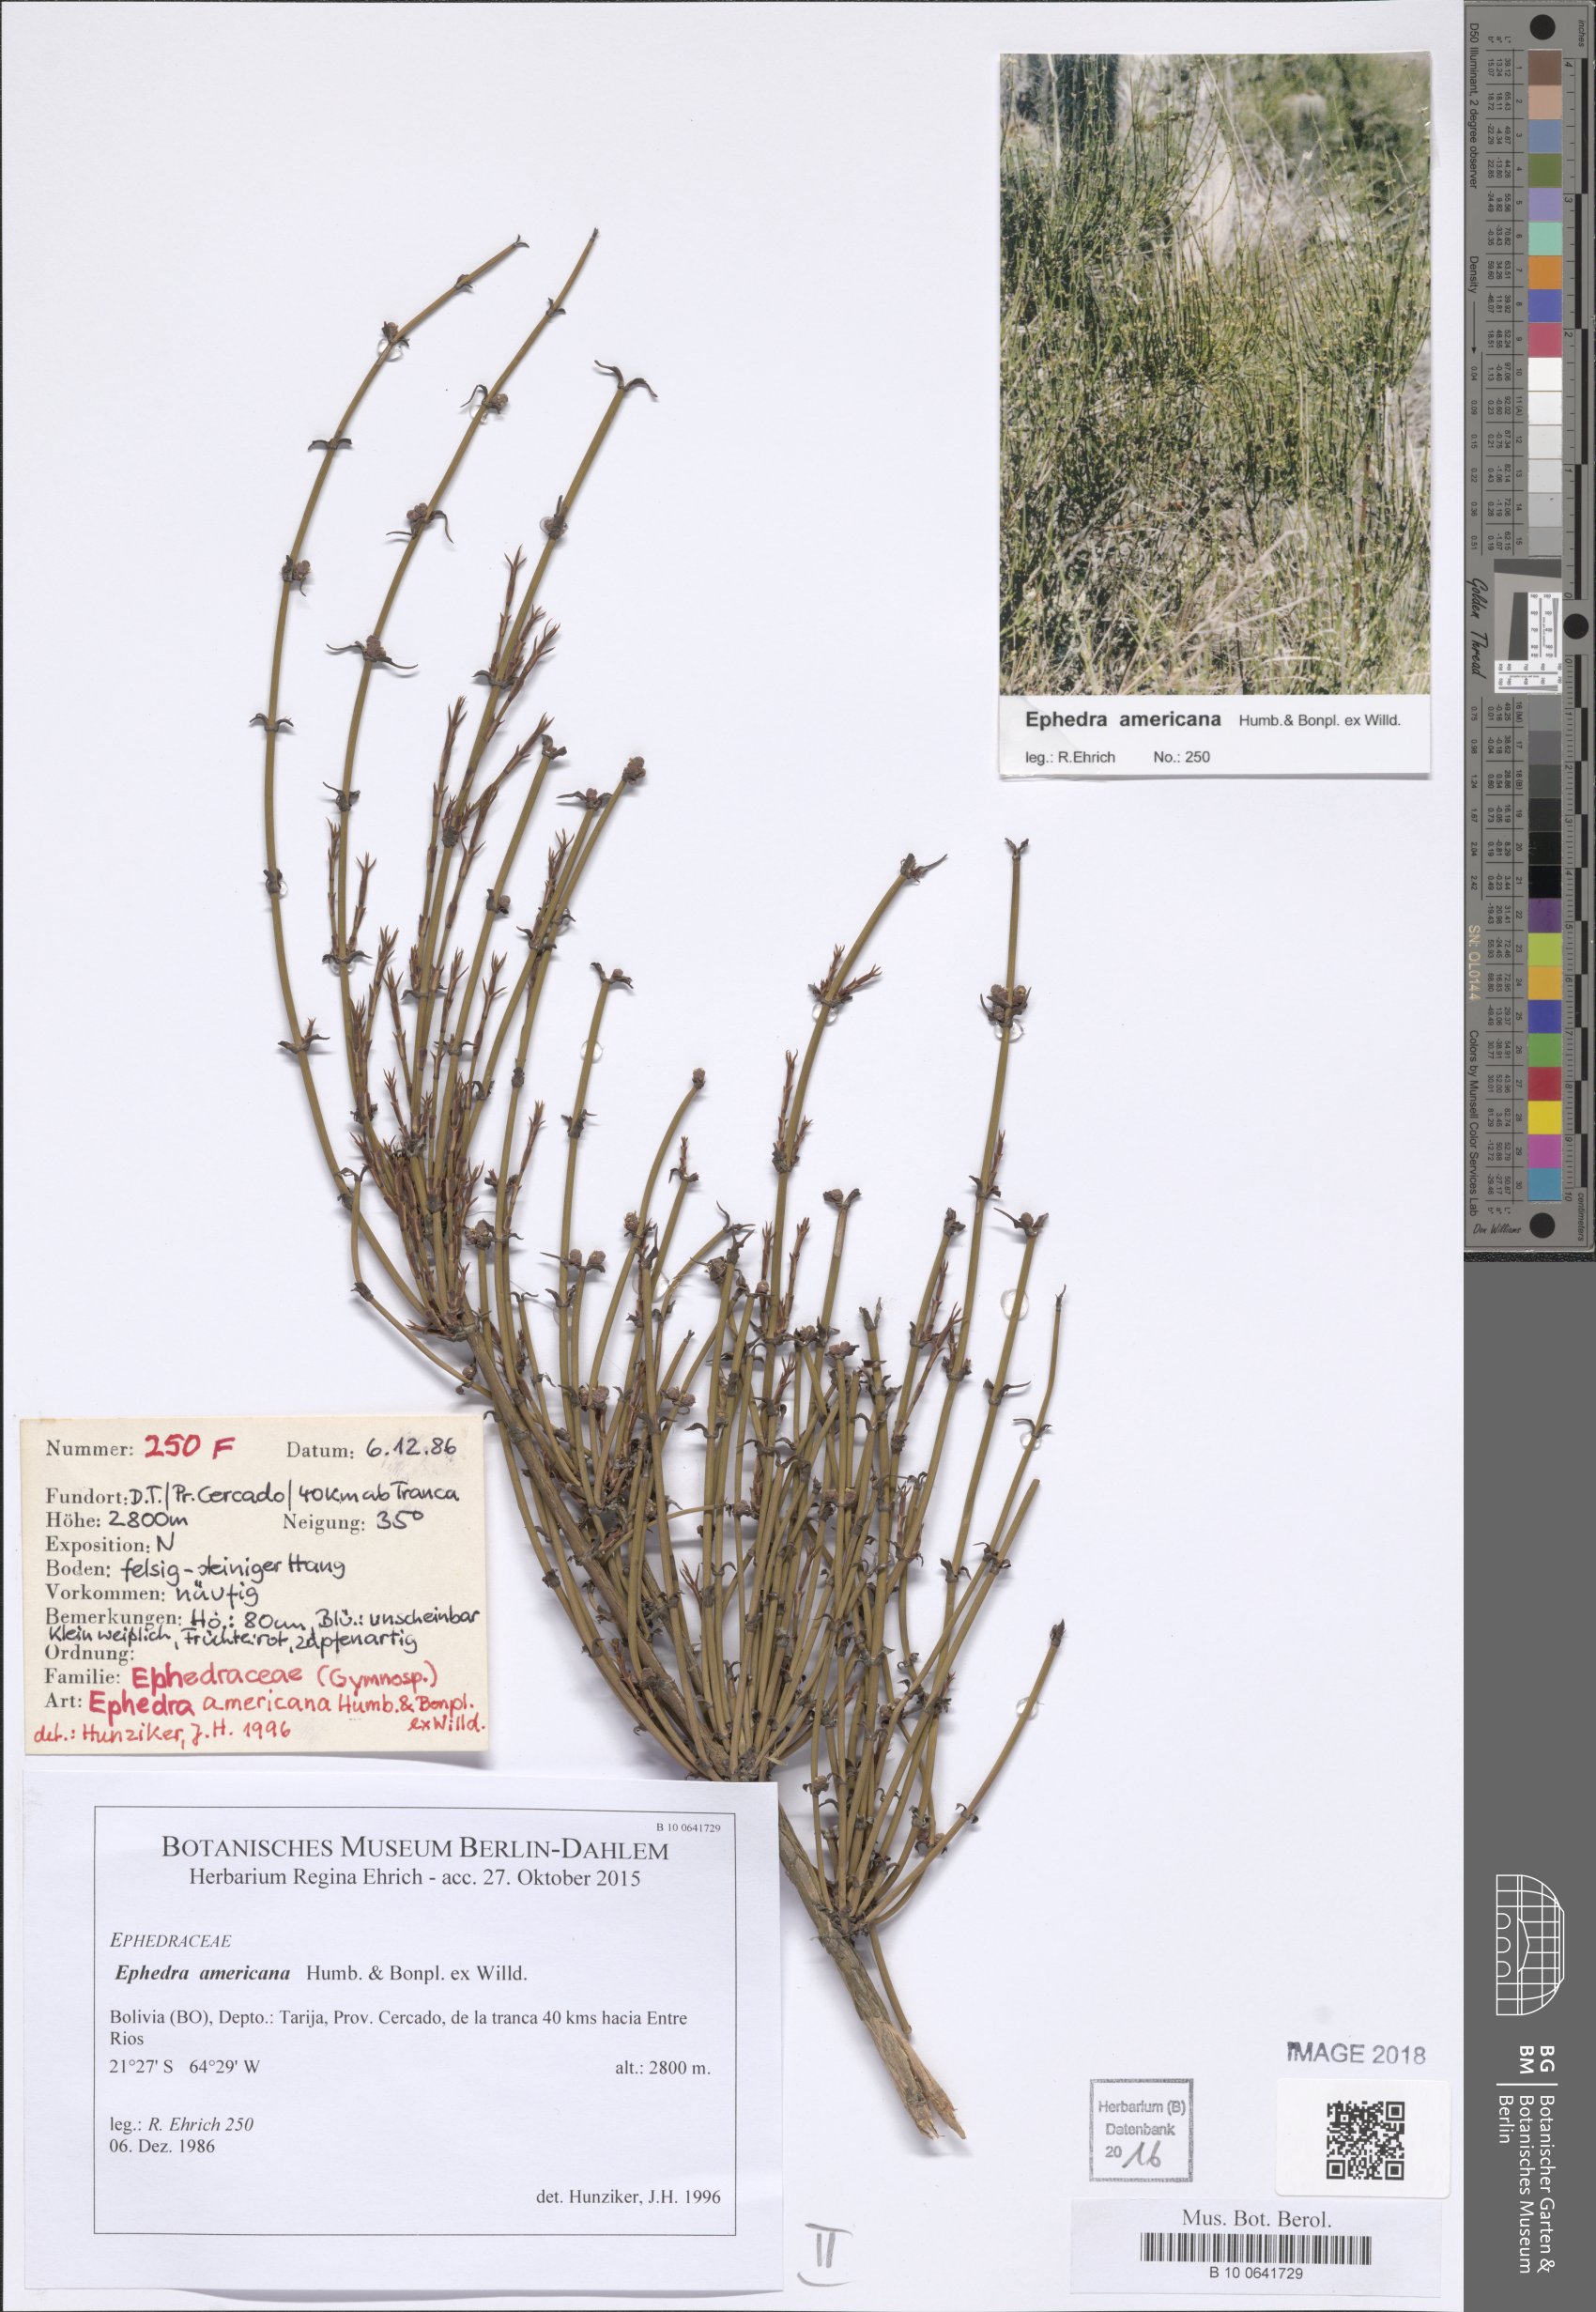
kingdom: Plantae
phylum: Tracheophyta
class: Gnetopsida
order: Ephedrales
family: Ephedraceae
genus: Ephedra
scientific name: Ephedra americana
